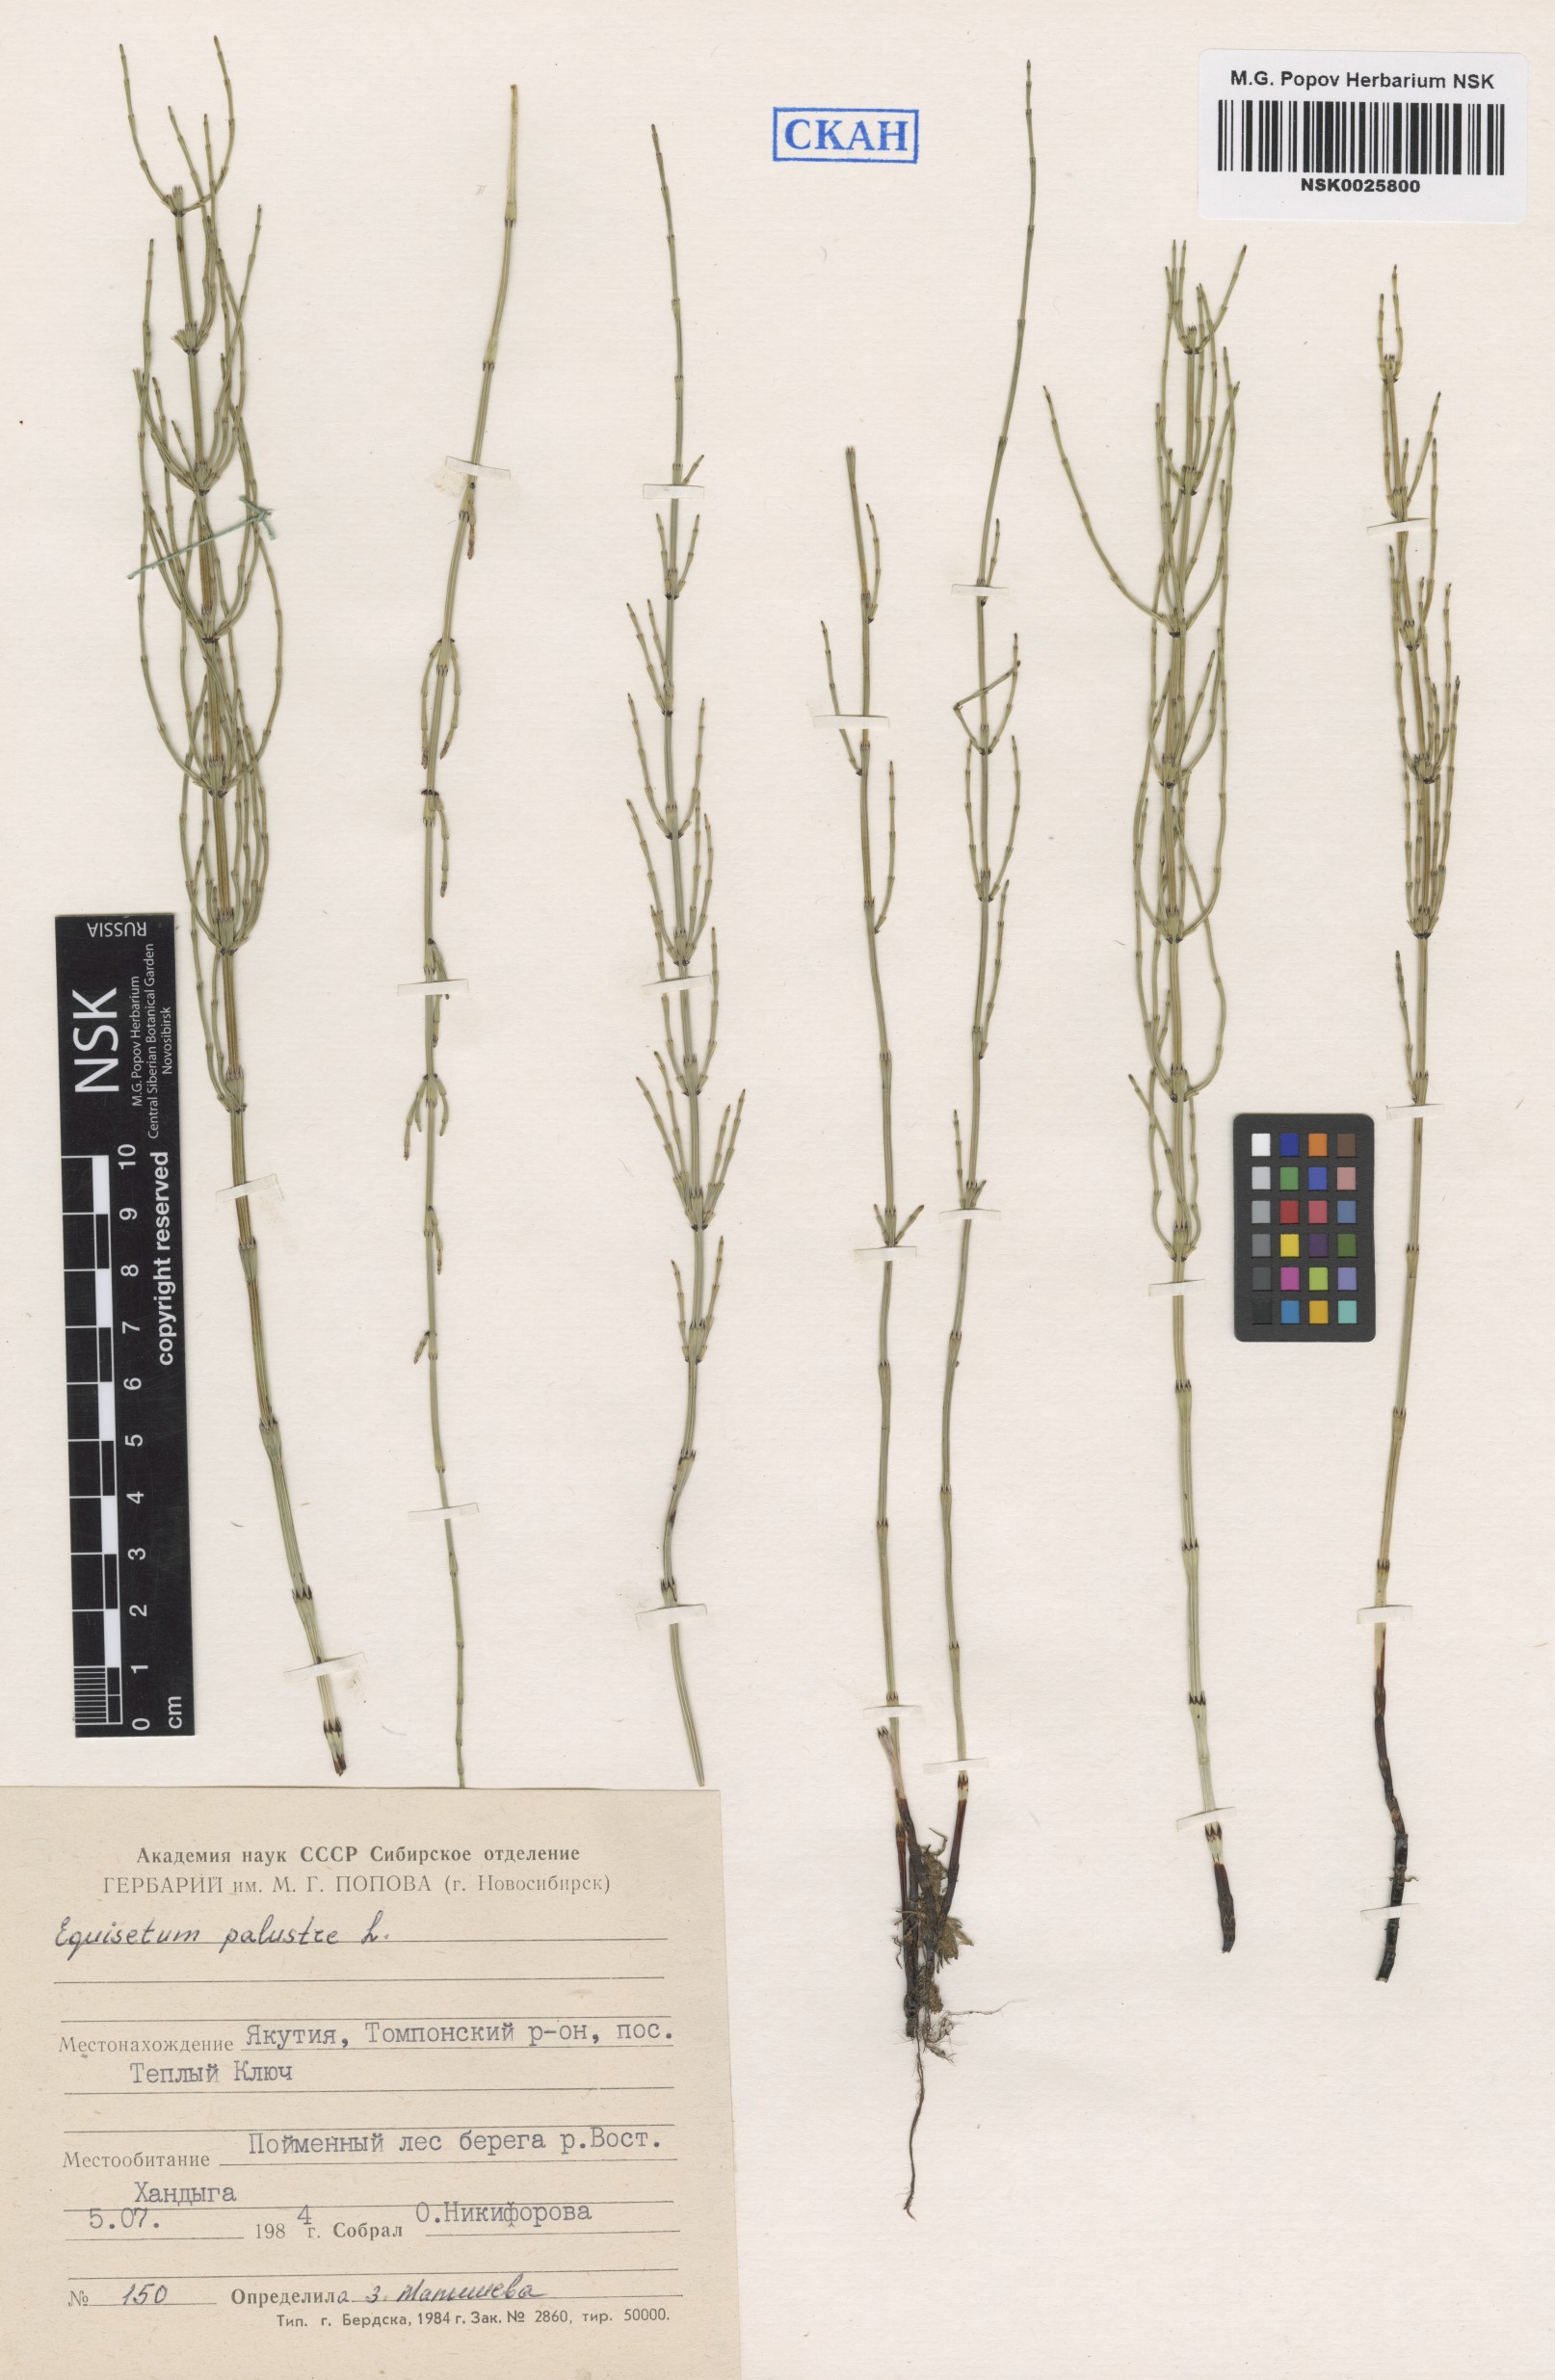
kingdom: Plantae
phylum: Tracheophyta
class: Polypodiopsida
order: Equisetales
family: Equisetaceae
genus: Equisetum
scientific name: Equisetum palustre
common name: Marsh horsetail
